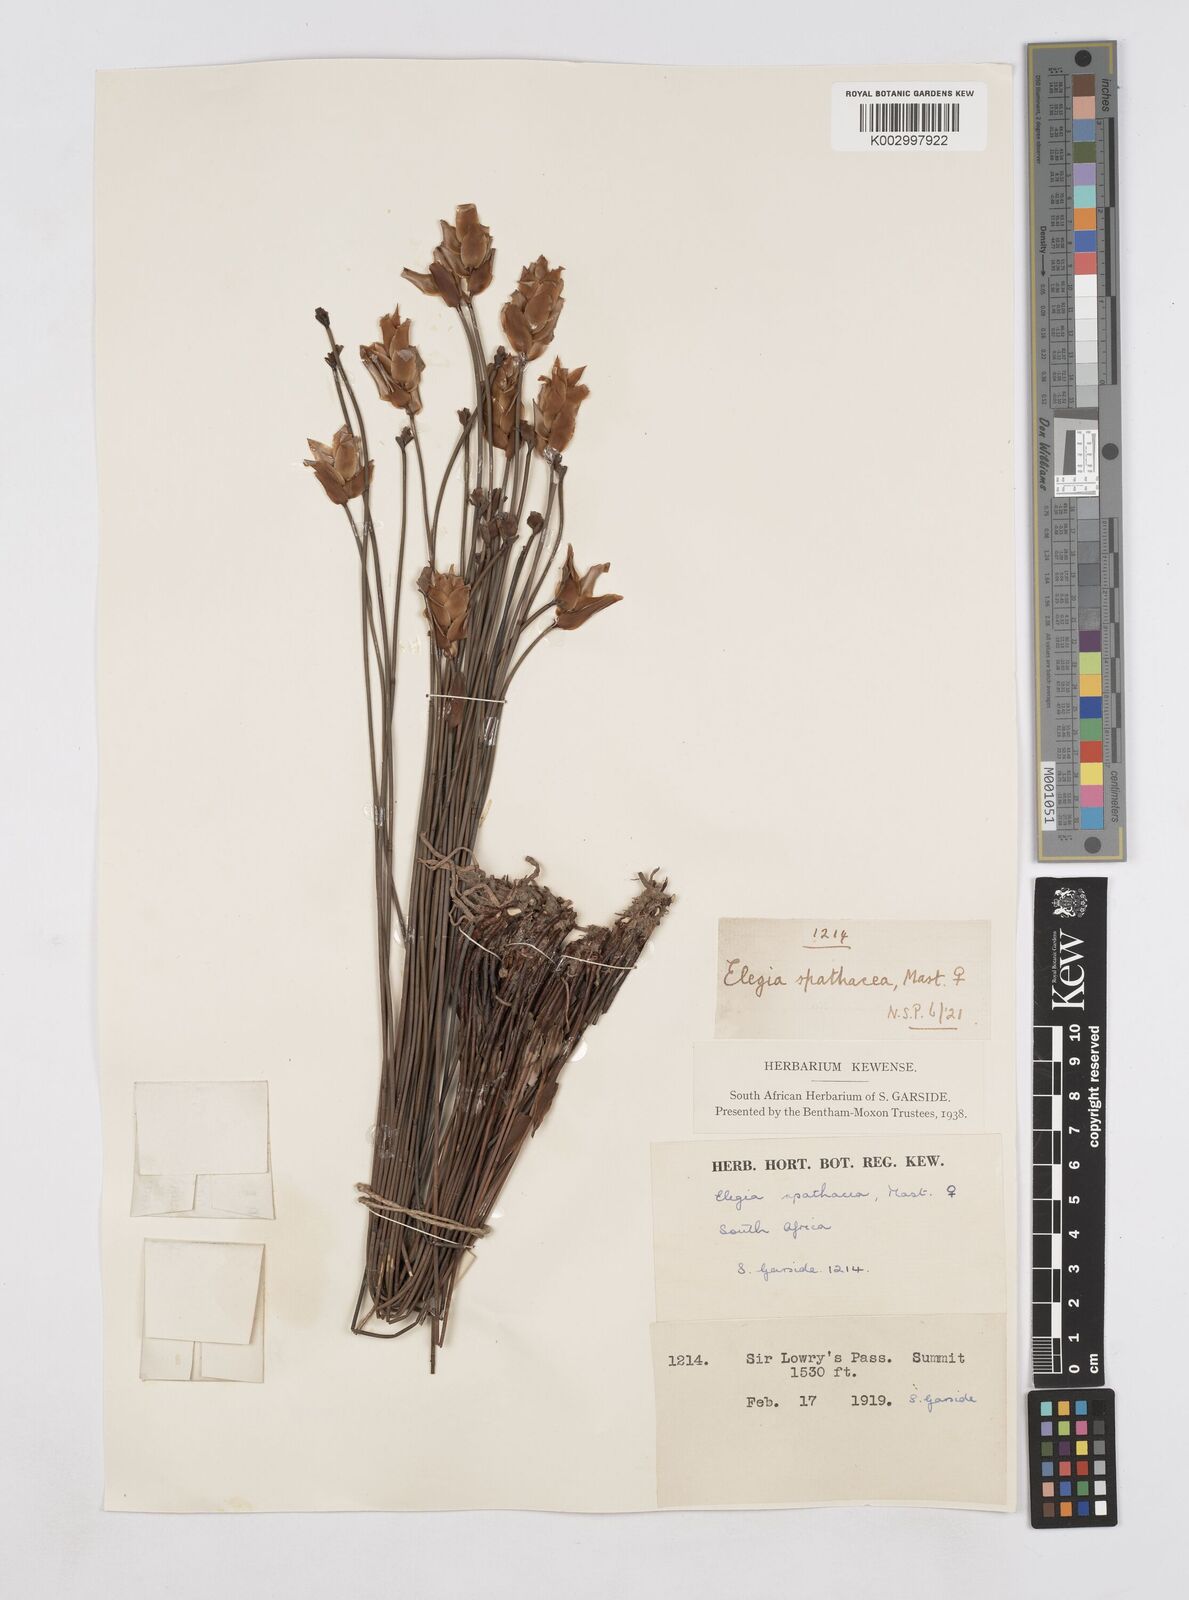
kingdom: Plantae
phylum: Tracheophyta
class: Liliopsida
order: Poales
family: Restionaceae
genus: Elegia
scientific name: Elegia spathacea
